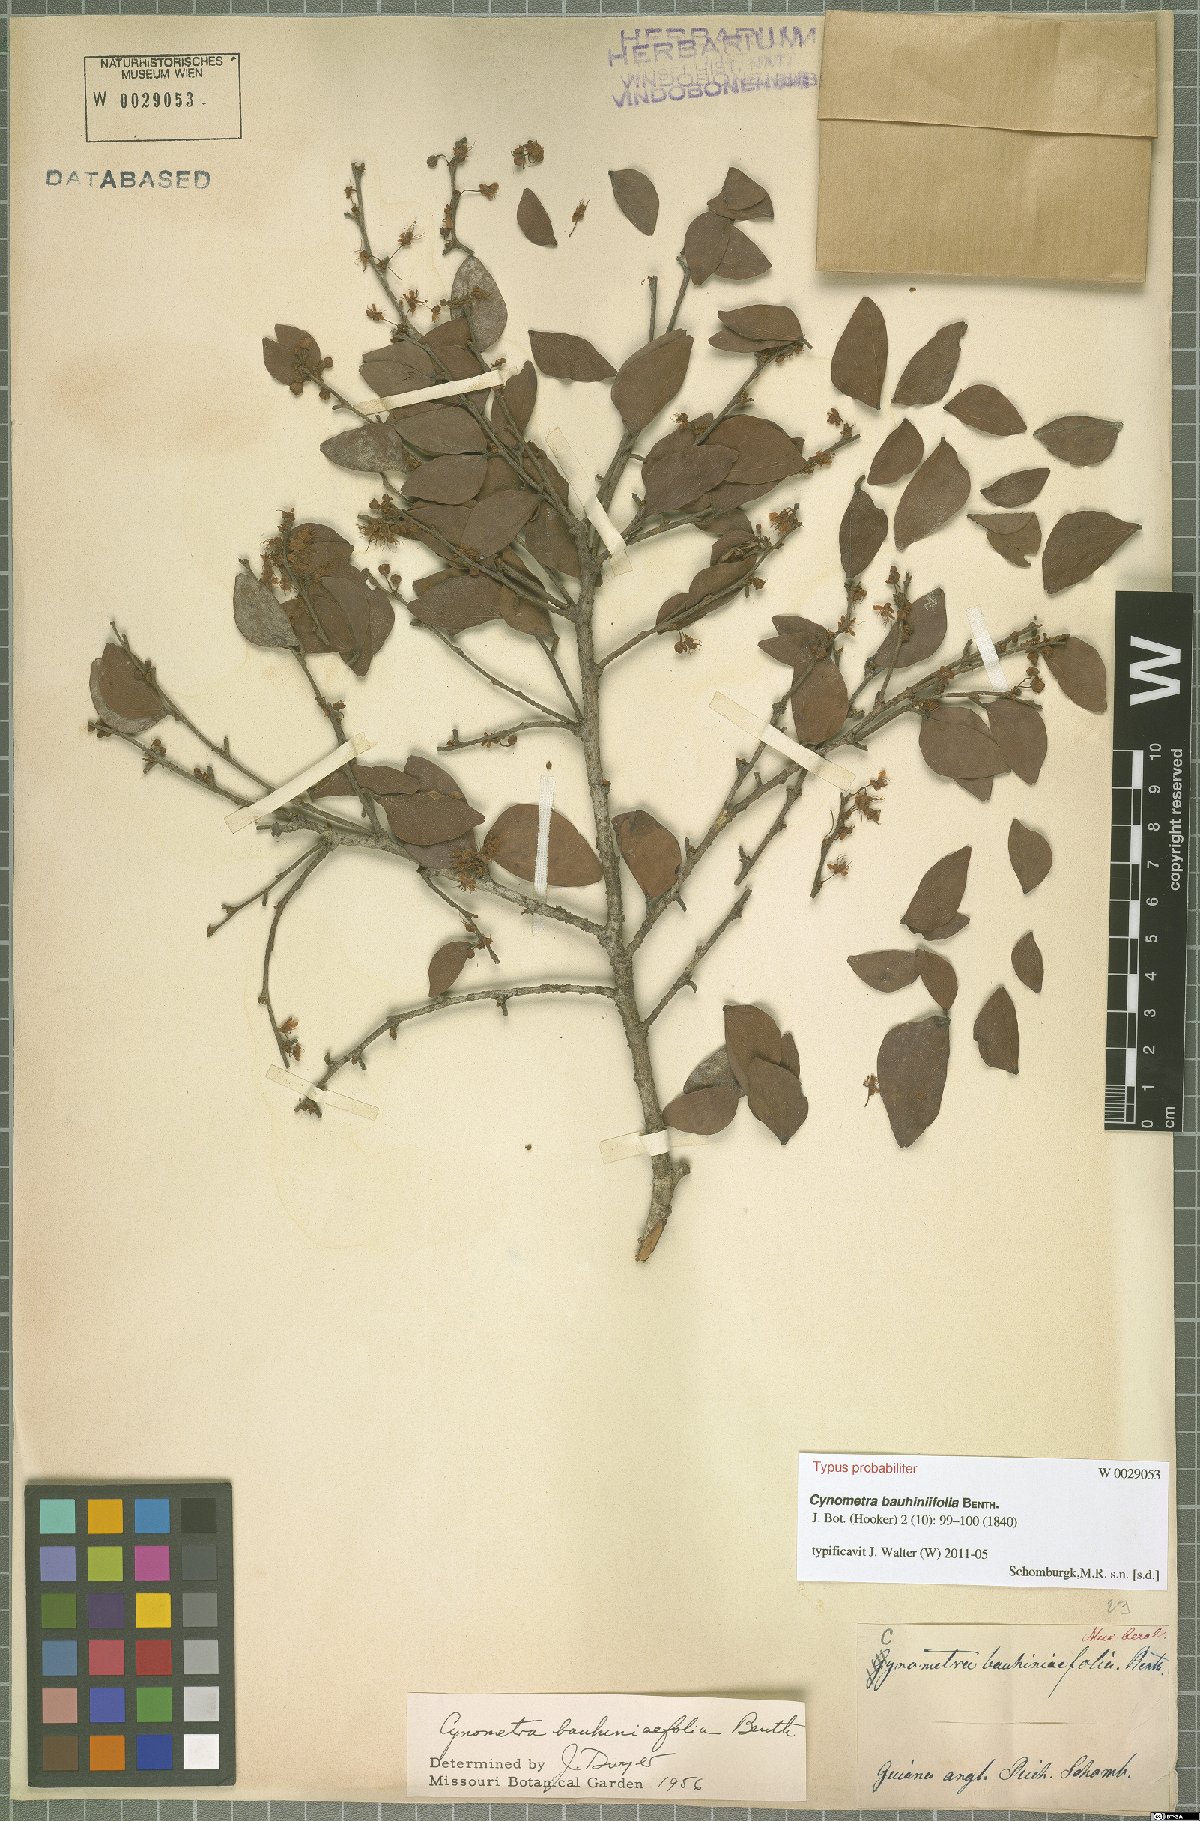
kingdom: Plantae
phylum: Tracheophyta
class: Magnoliopsida
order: Fabales
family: Fabaceae
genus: Cynometra
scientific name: Cynometra bauhiniifolia
